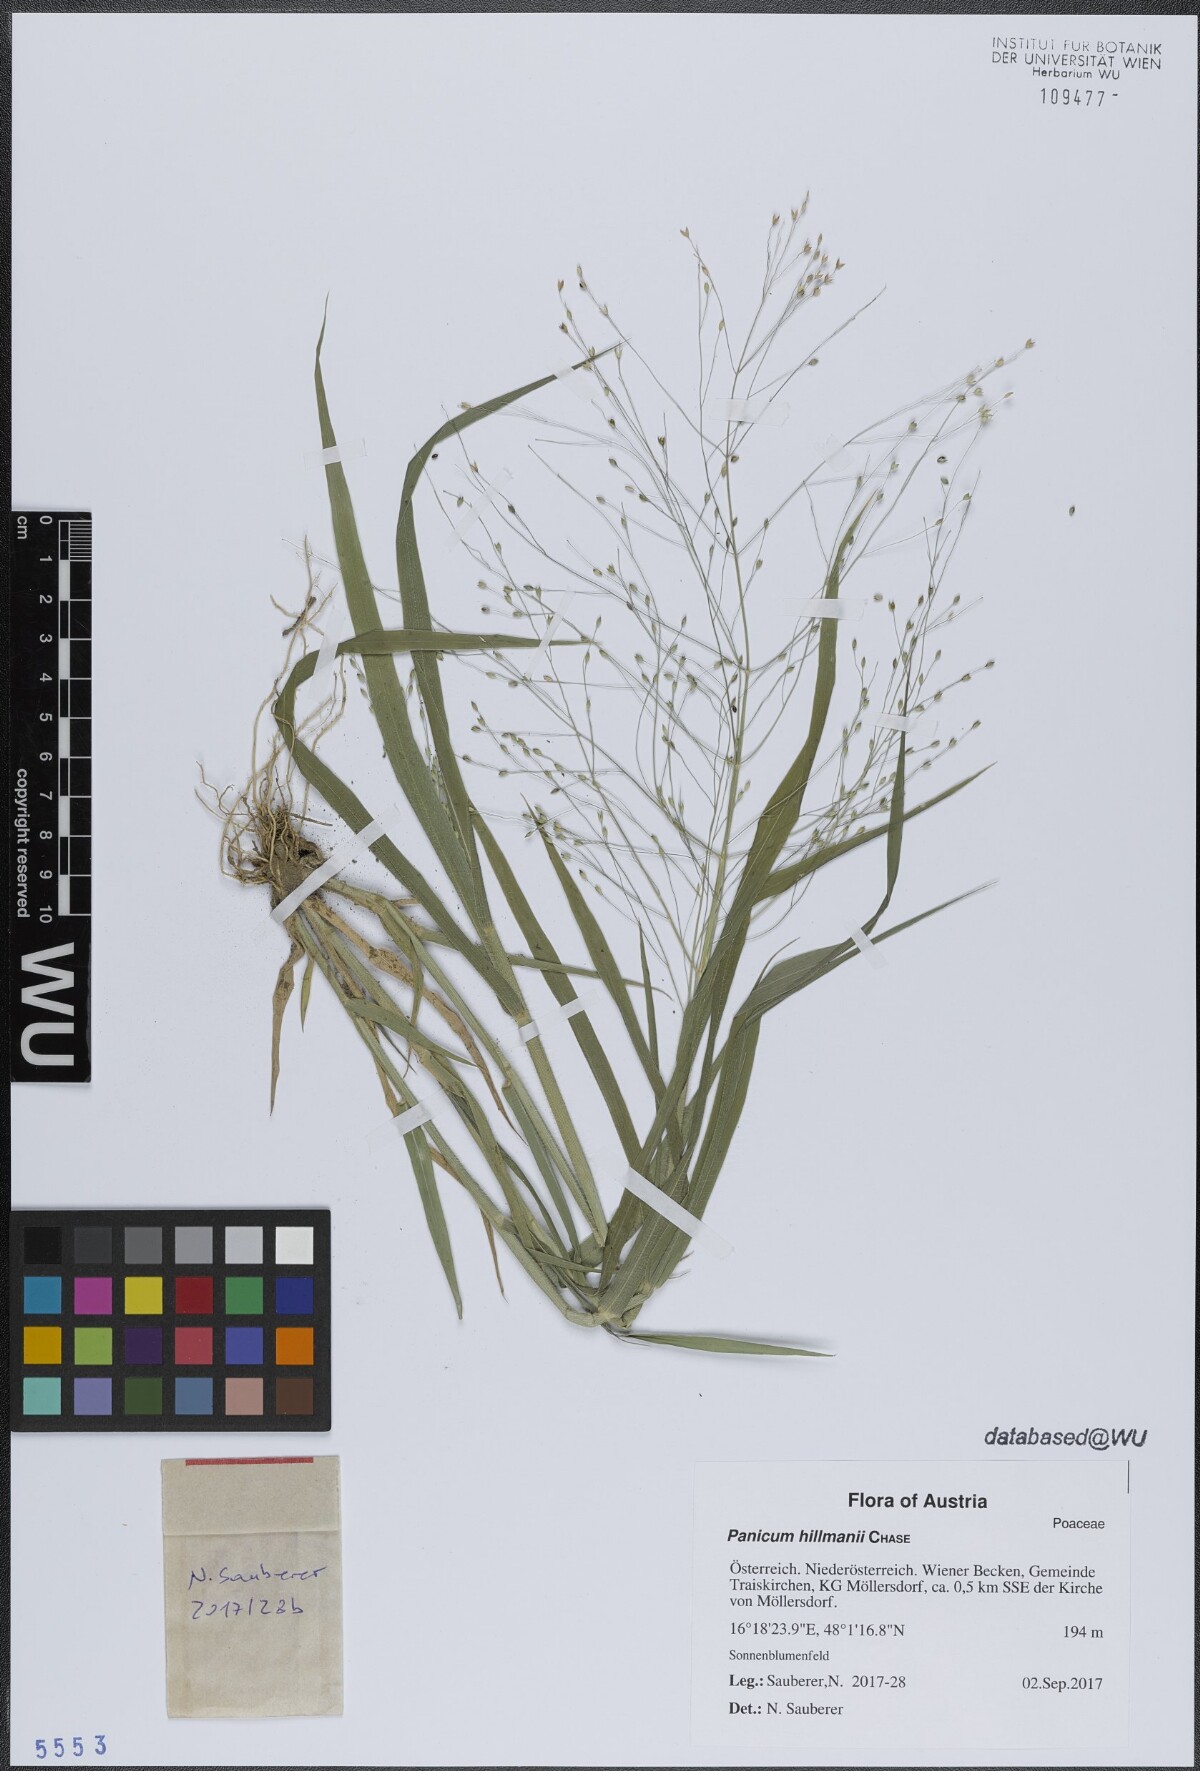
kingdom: Plantae
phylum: Tracheophyta
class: Liliopsida
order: Poales
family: Poaceae
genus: Panicum
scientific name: Panicum hillmanii
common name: Hillman's panicum
